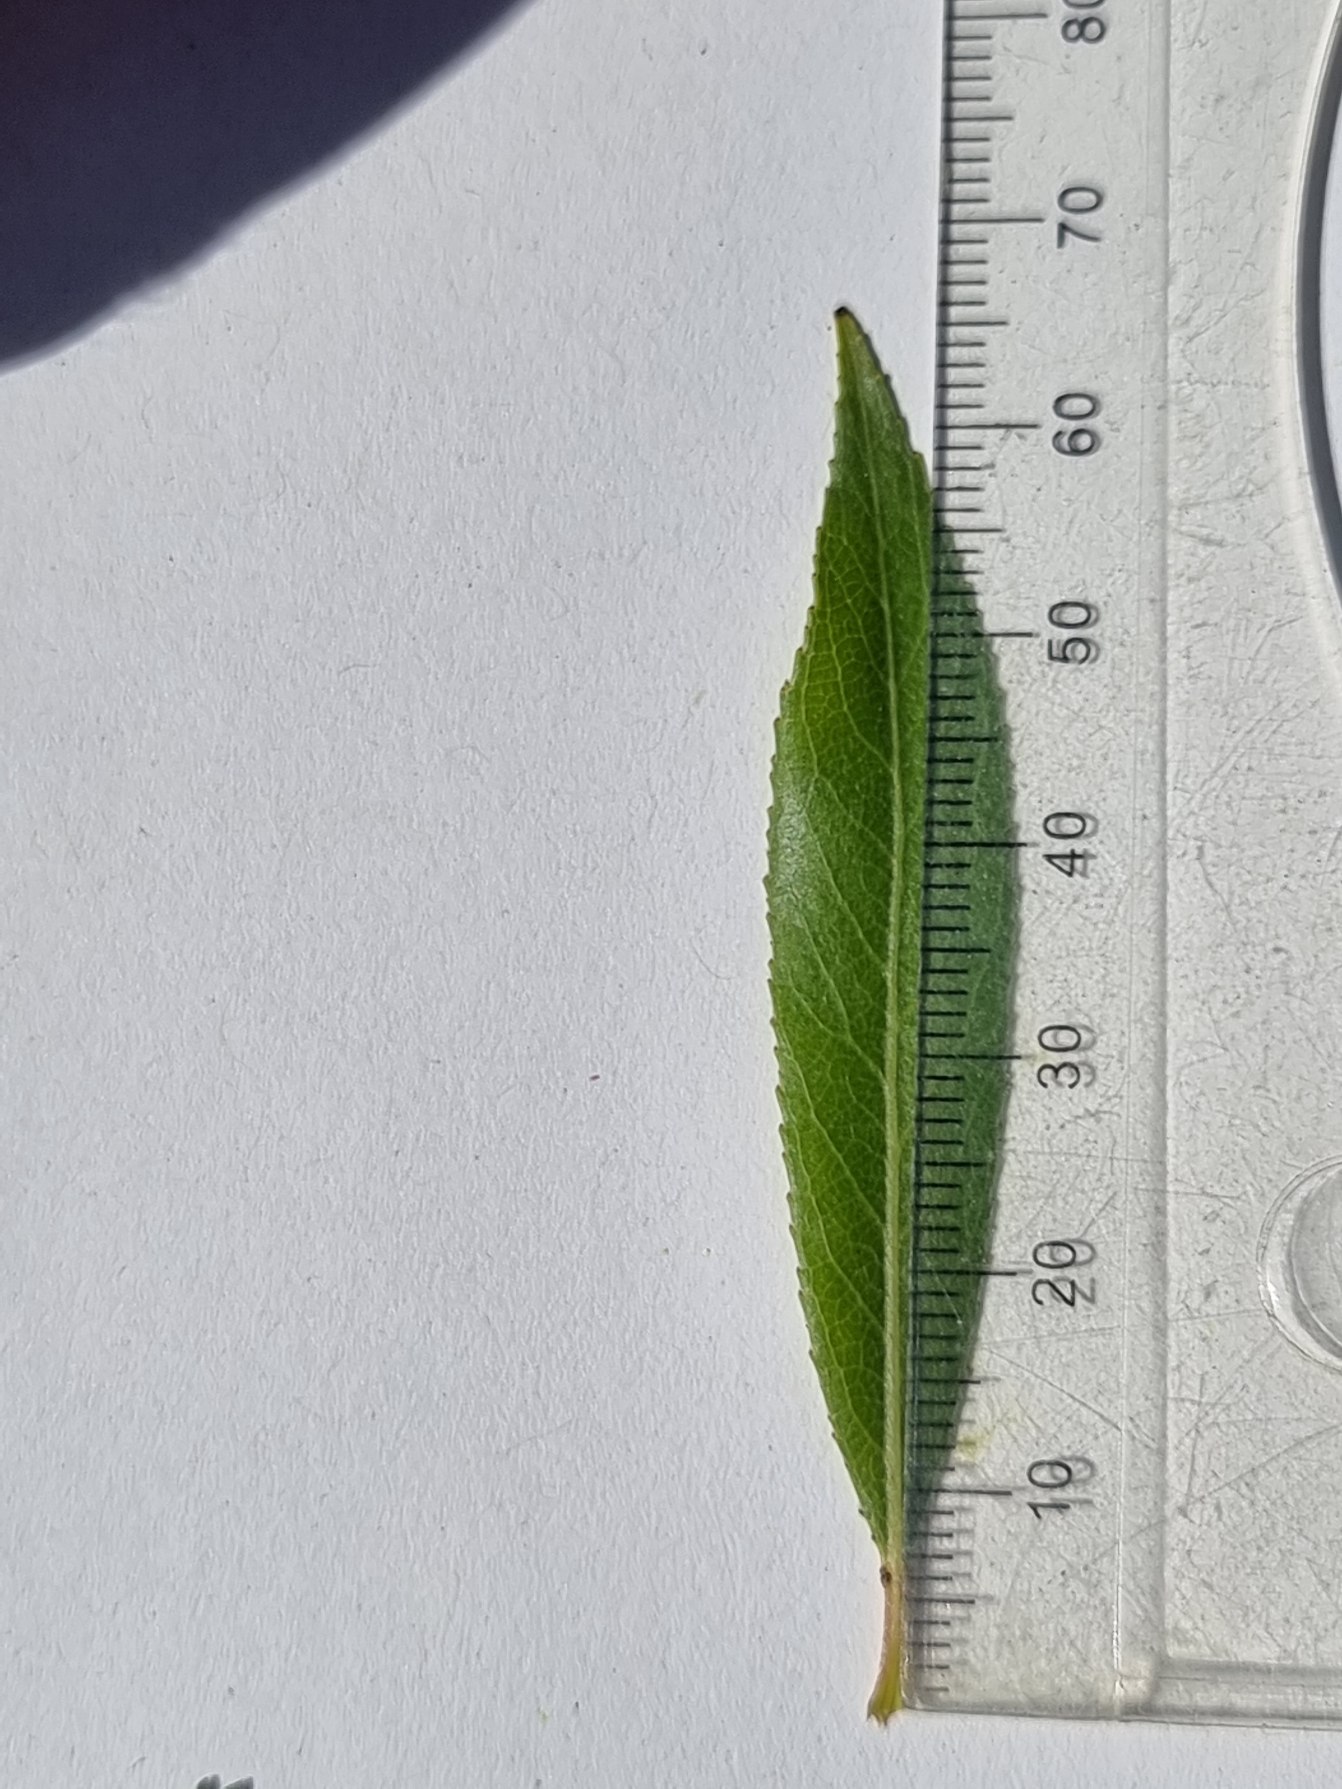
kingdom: Plantae
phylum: Tracheophyta
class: Magnoliopsida
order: Malpighiales
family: Salicaceae
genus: Salix
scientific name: Salix alba
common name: Hvid-pil
